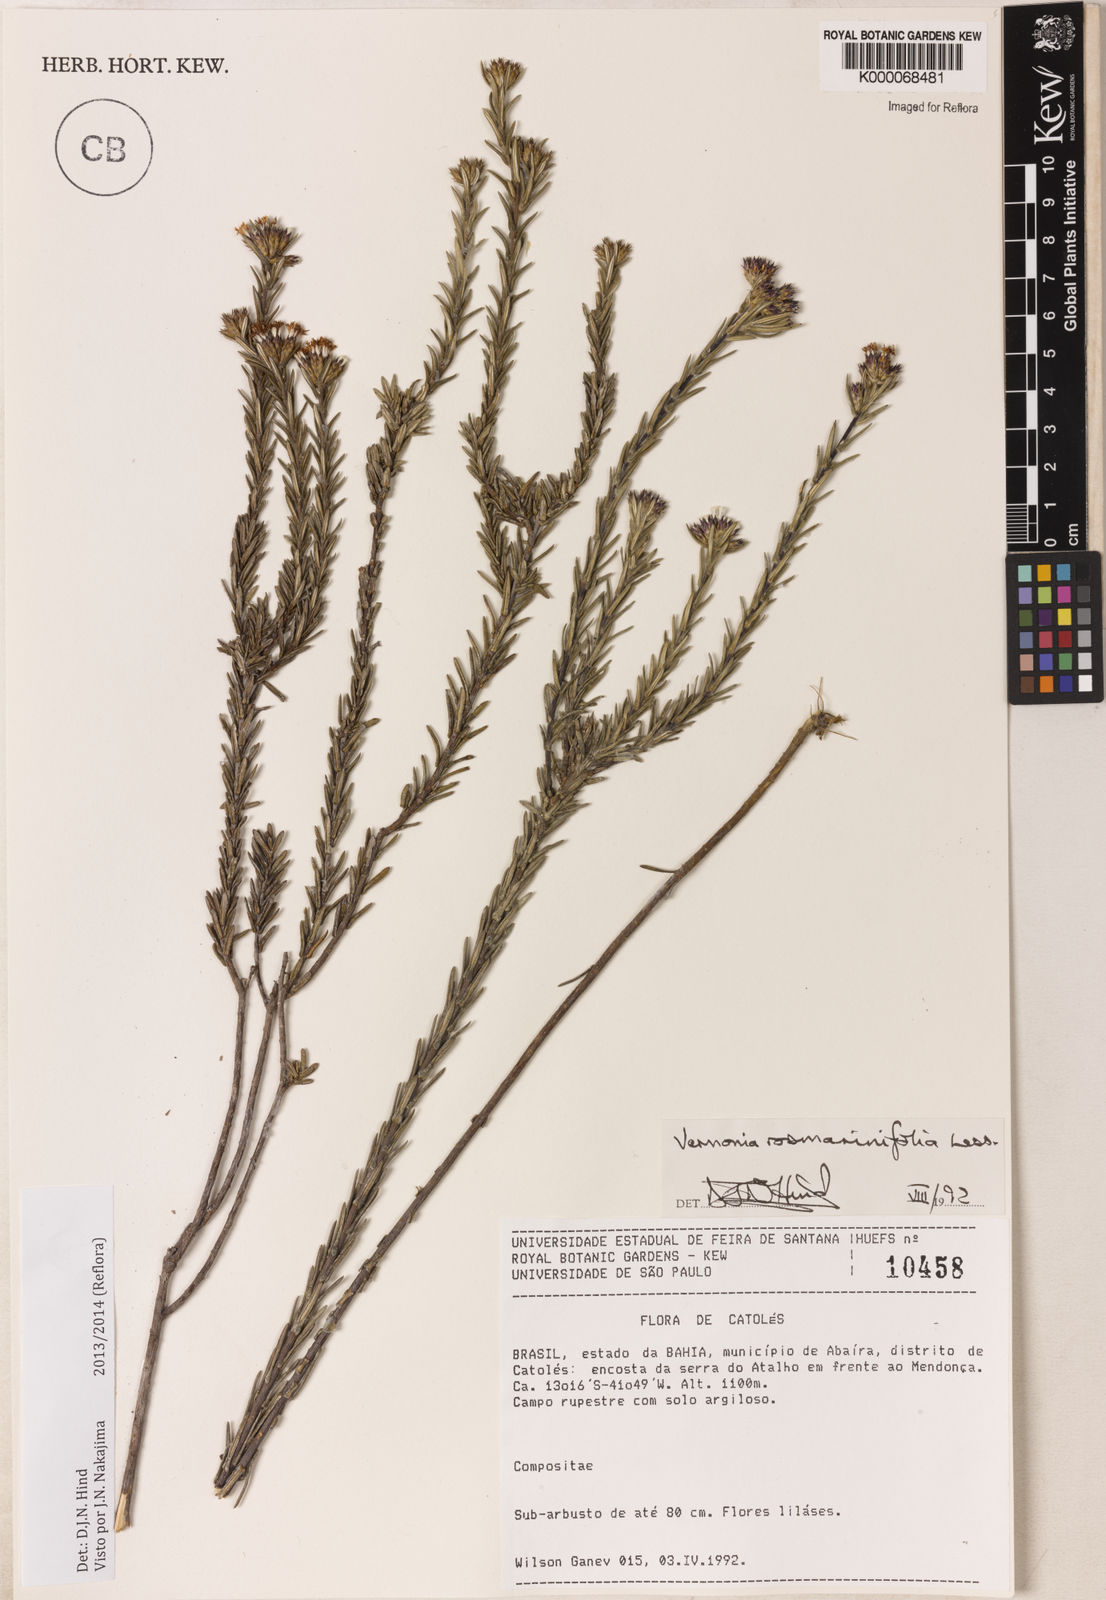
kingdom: Plantae
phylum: Tracheophyta
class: Magnoliopsida
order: Asterales
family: Asteraceae
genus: Lessingianthus
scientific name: Lessingianthus rosmarinifolius
